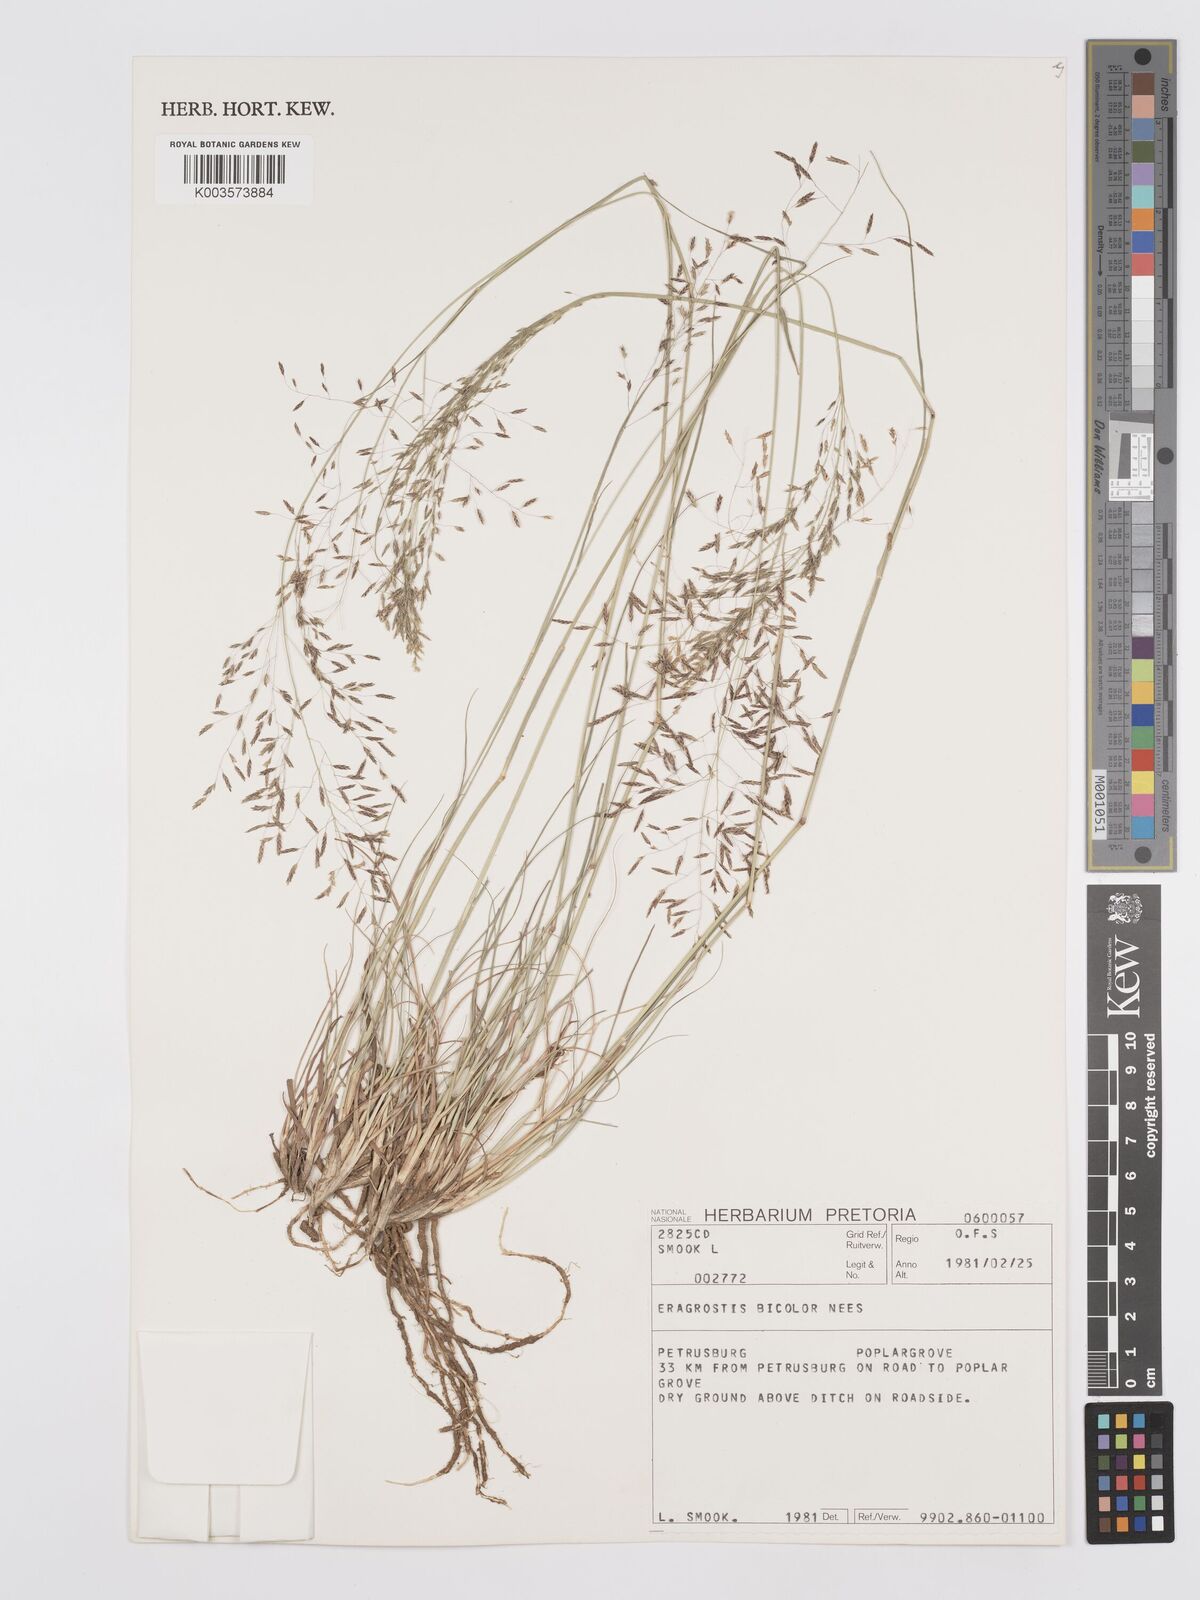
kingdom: Plantae
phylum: Tracheophyta
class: Liliopsida
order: Poales
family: Poaceae
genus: Eragrostis
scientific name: Eragrostis
